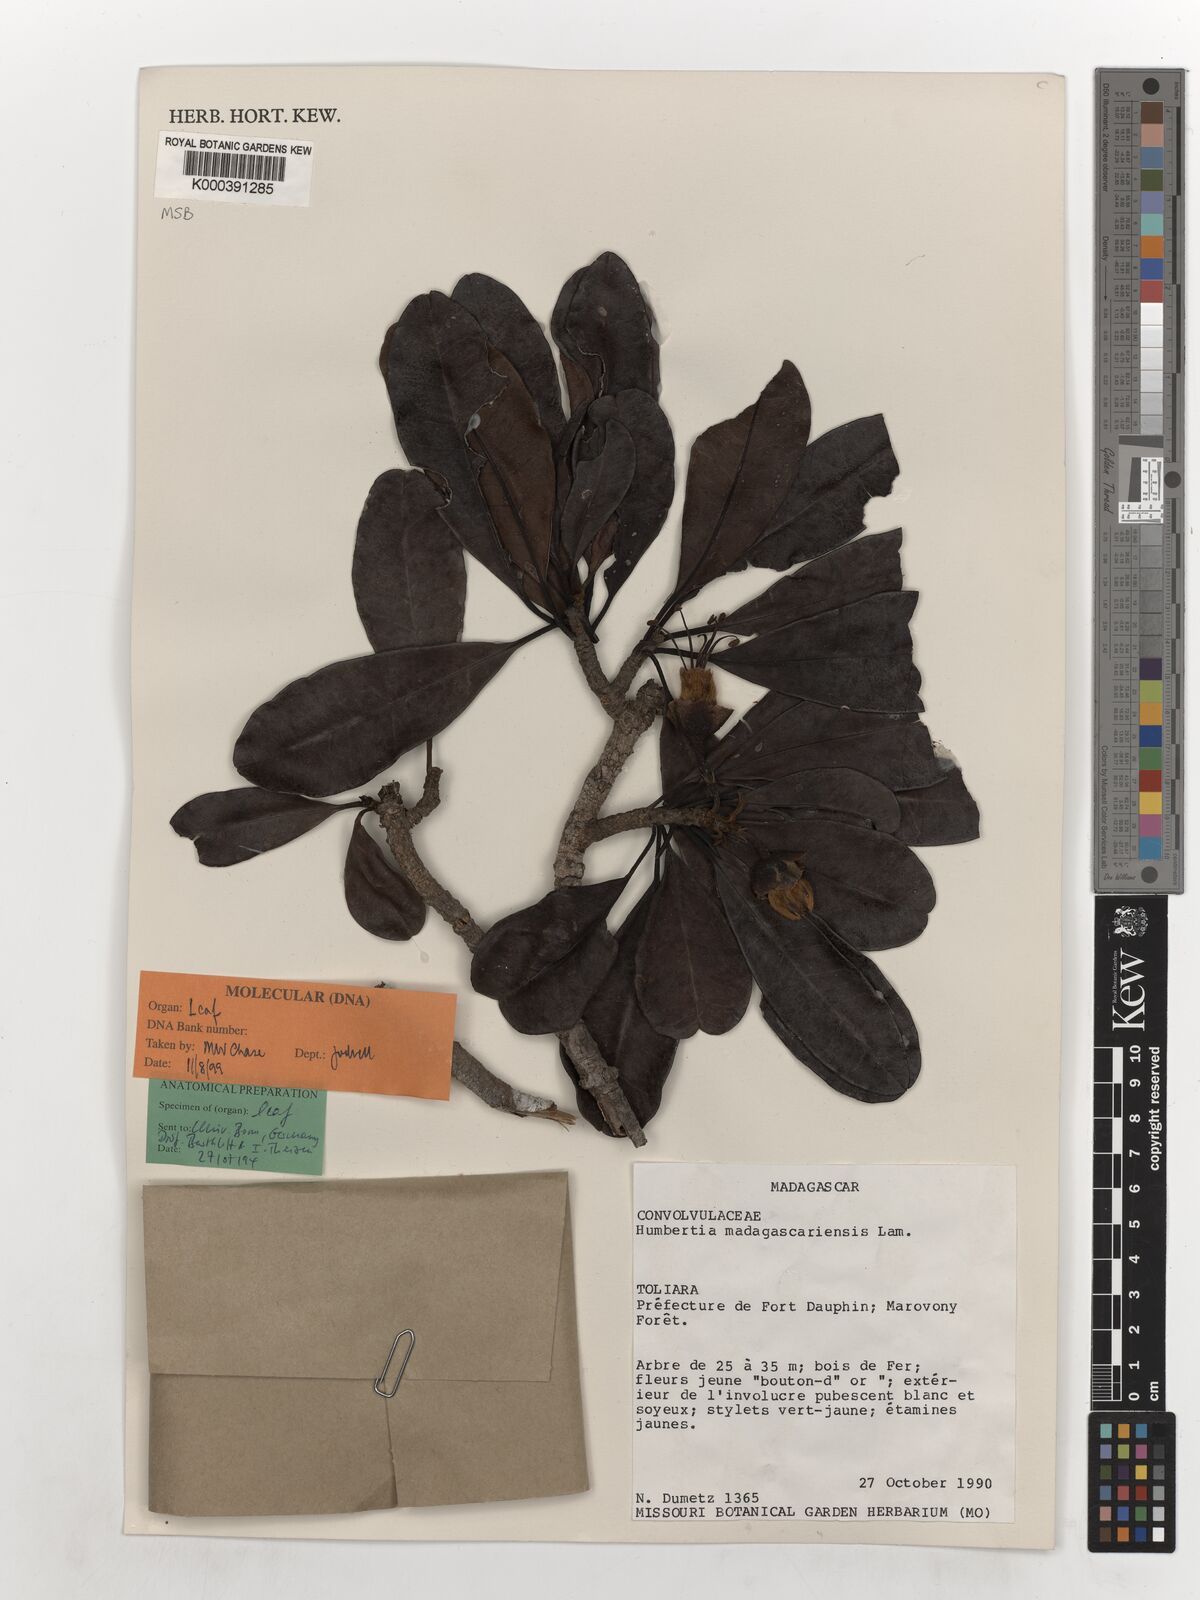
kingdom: Plantae
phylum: Tracheophyta
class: Magnoliopsida
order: Solanales
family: Convolvulaceae
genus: Humbertia
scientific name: Humbertia madagascariensis
